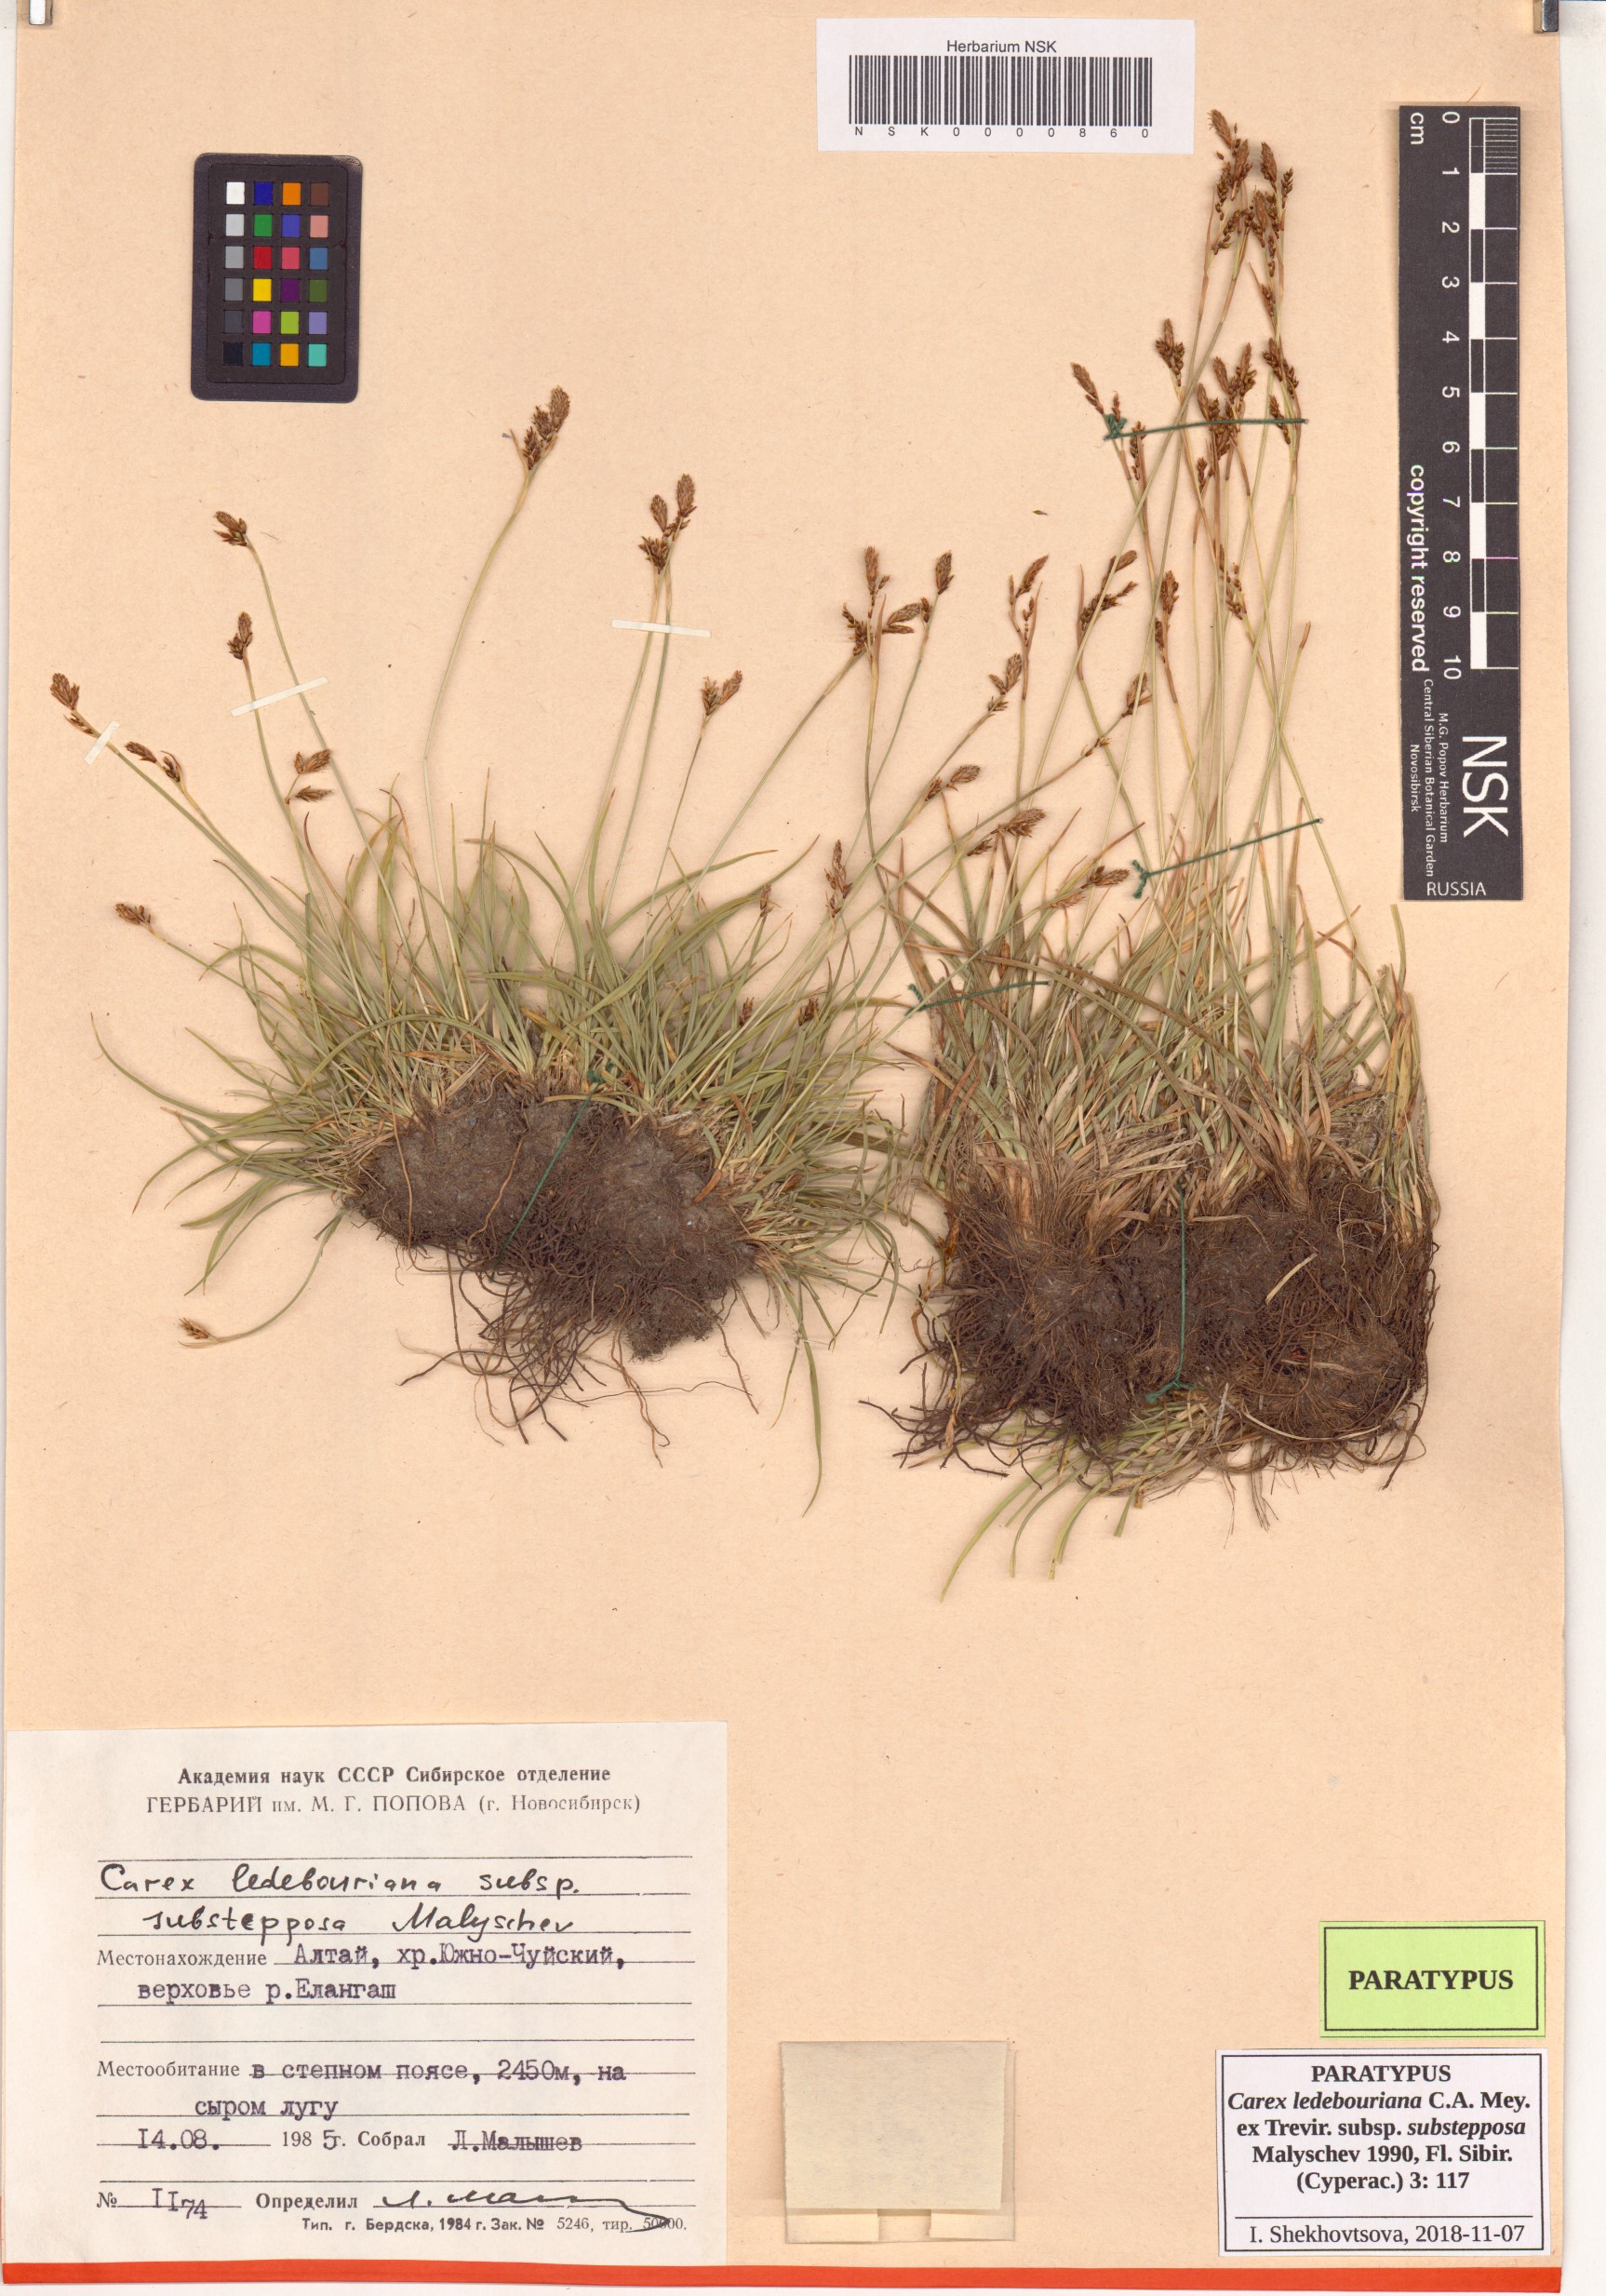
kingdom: Plantae
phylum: Tracheophyta
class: Liliopsida
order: Poales
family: Cyperaceae
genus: Carex
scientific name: Carex ledebouriana
